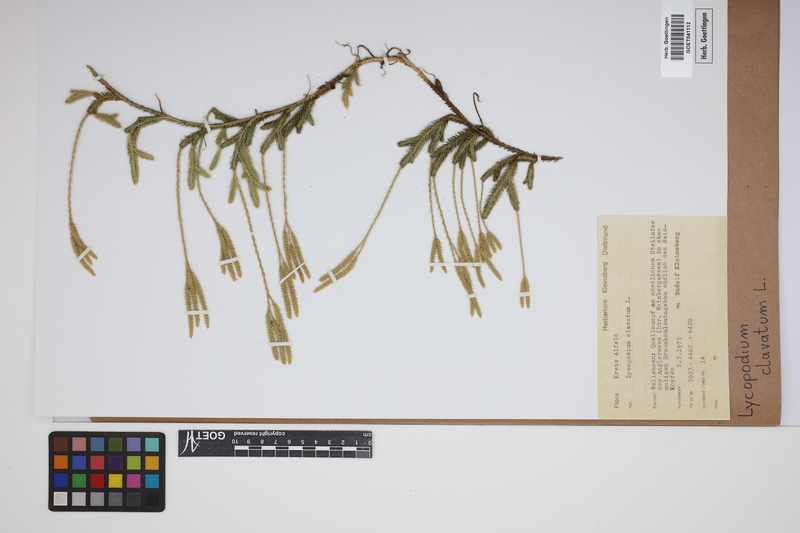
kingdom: Plantae
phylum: Tracheophyta
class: Lycopodiopsida
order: Lycopodiales
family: Lycopodiaceae
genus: Lycopodium
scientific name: Lycopodium clavatum
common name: Stag's-horn clubmoss
